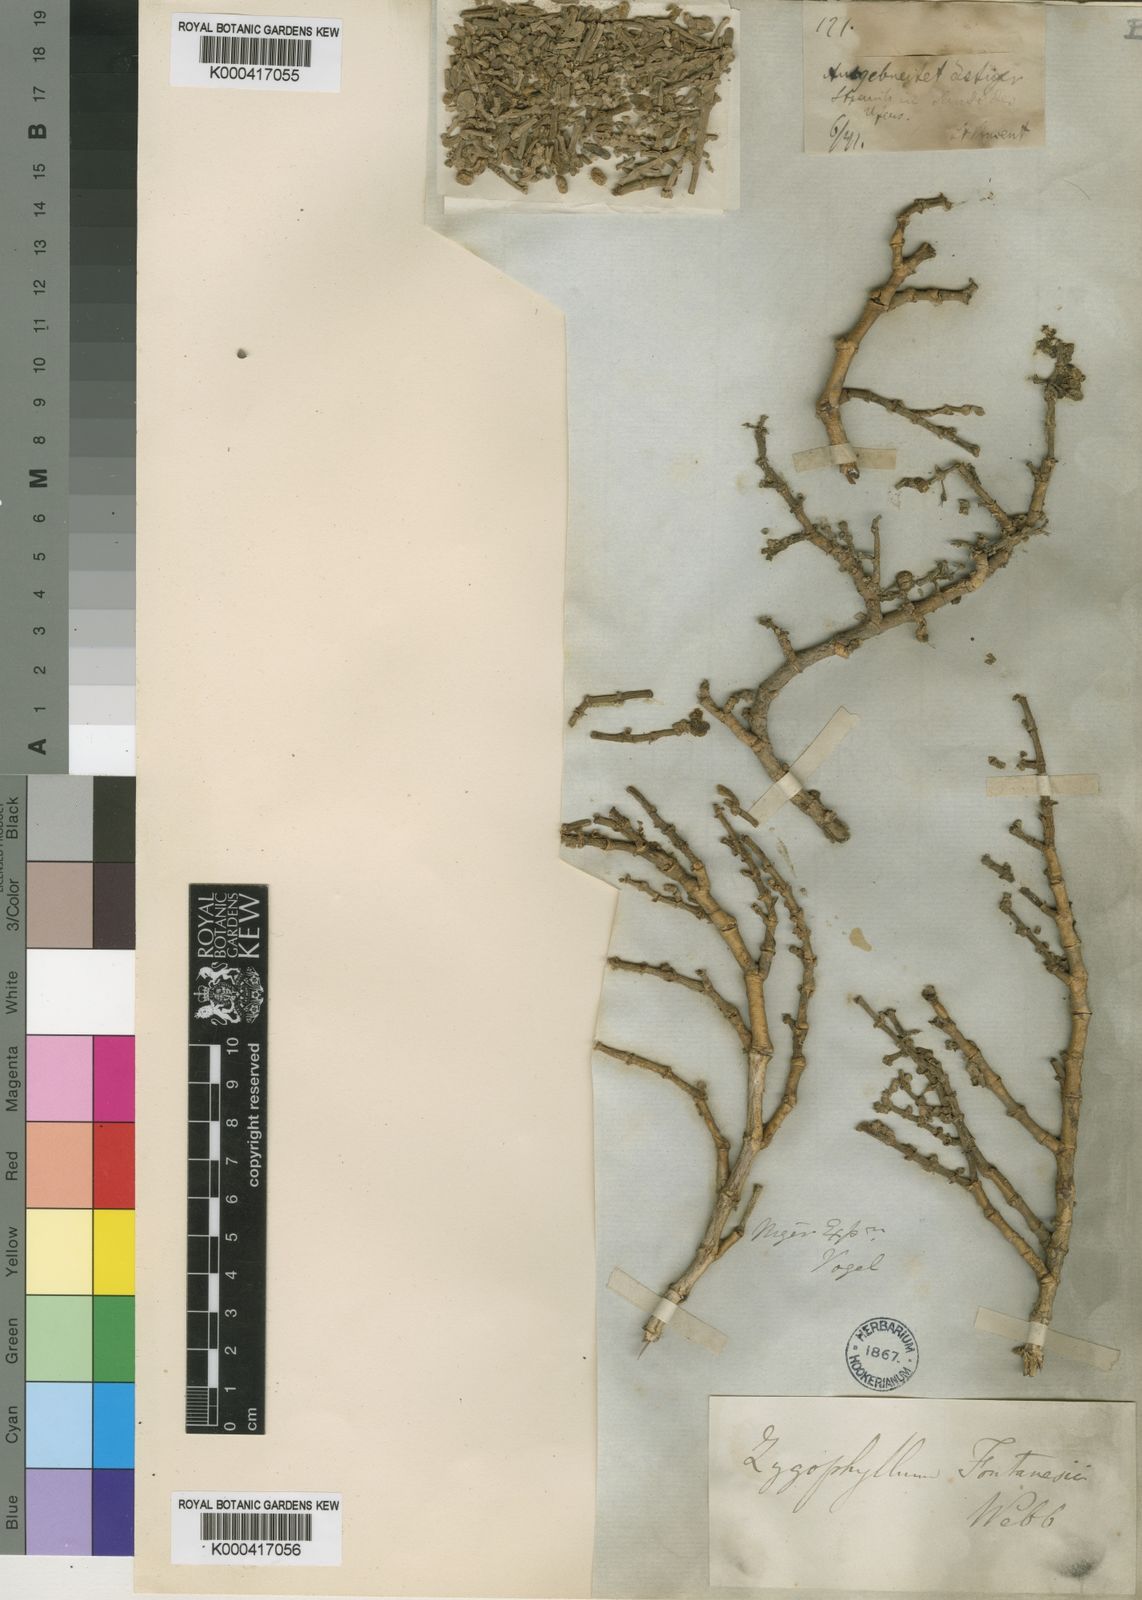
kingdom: Plantae
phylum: Tracheophyta
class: Magnoliopsida
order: Zygophyllales
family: Zygophyllaceae
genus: Tetraena
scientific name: Tetraena fontanesii
